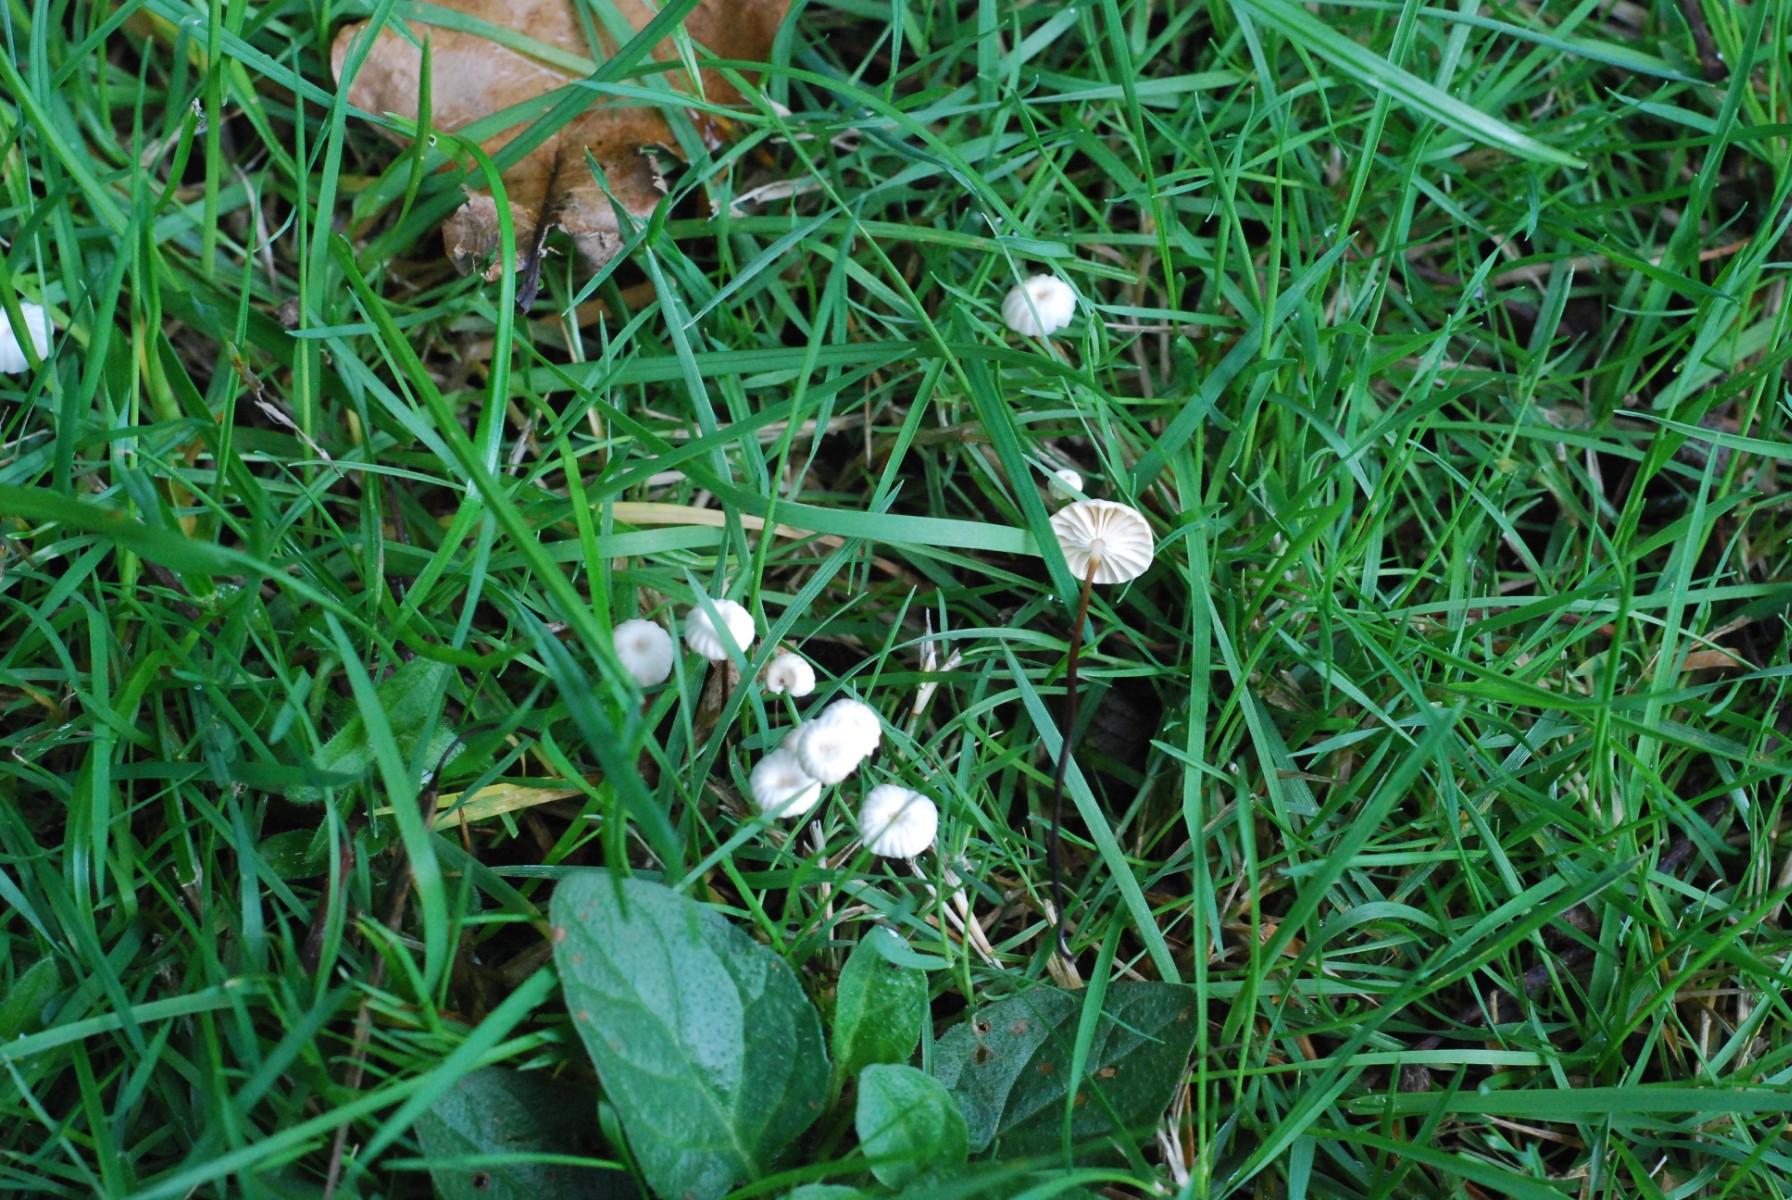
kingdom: Fungi
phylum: Basidiomycota
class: Agaricomycetes
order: Agaricales
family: Marasmiaceae
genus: Marasmius
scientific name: Marasmius rotula
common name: hjul-bruskhat
